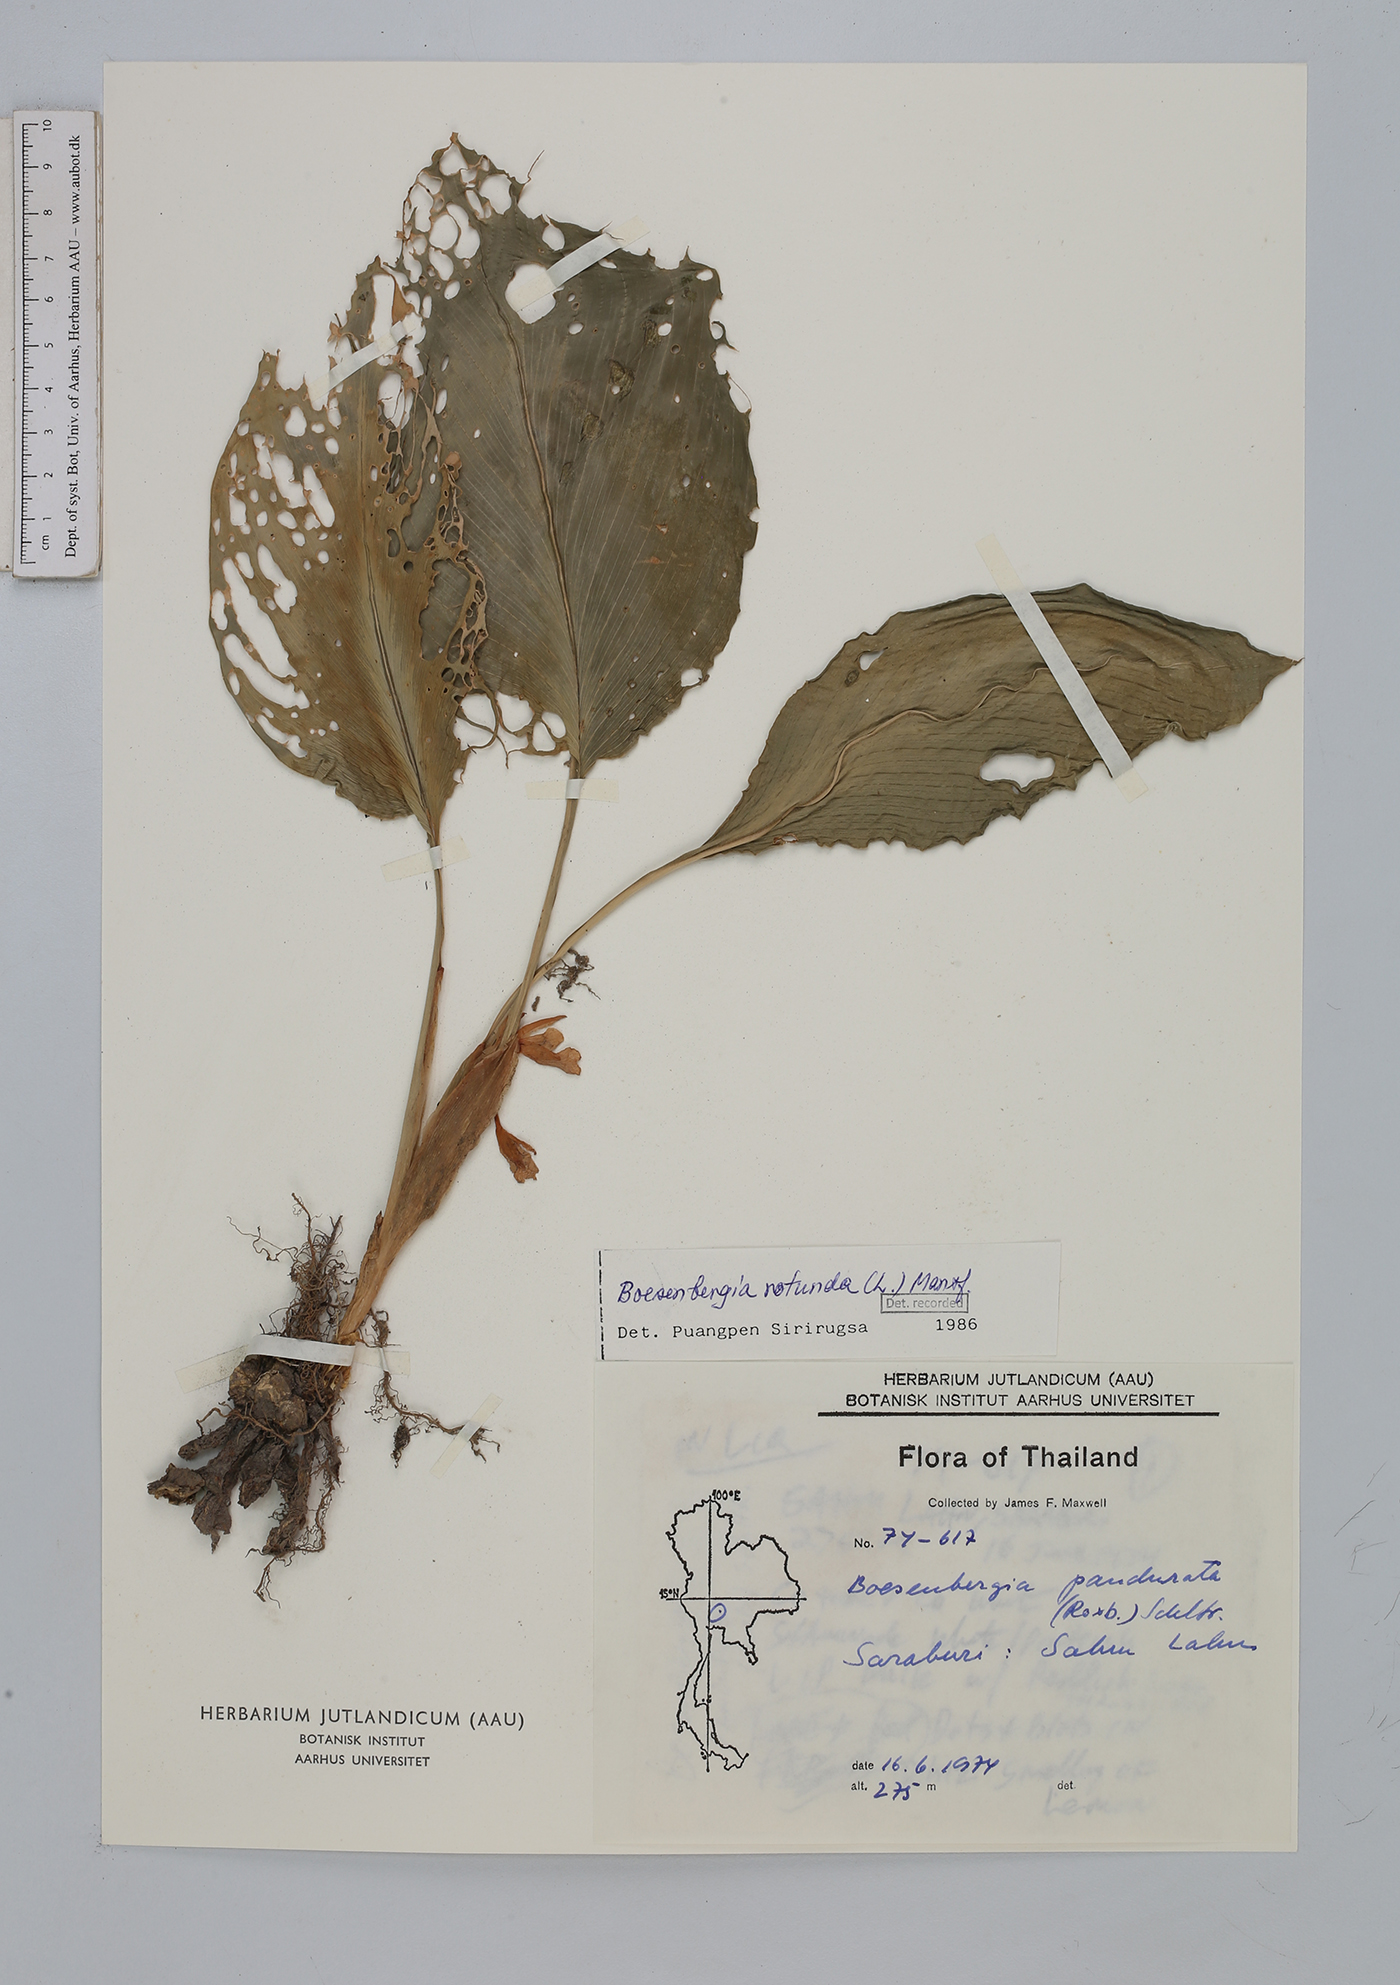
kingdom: Plantae
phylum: Tracheophyta
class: Liliopsida
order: Zingiberales
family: Zingiberaceae
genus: Boesenbergia
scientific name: Boesenbergia rotunda
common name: Chinese ginger
